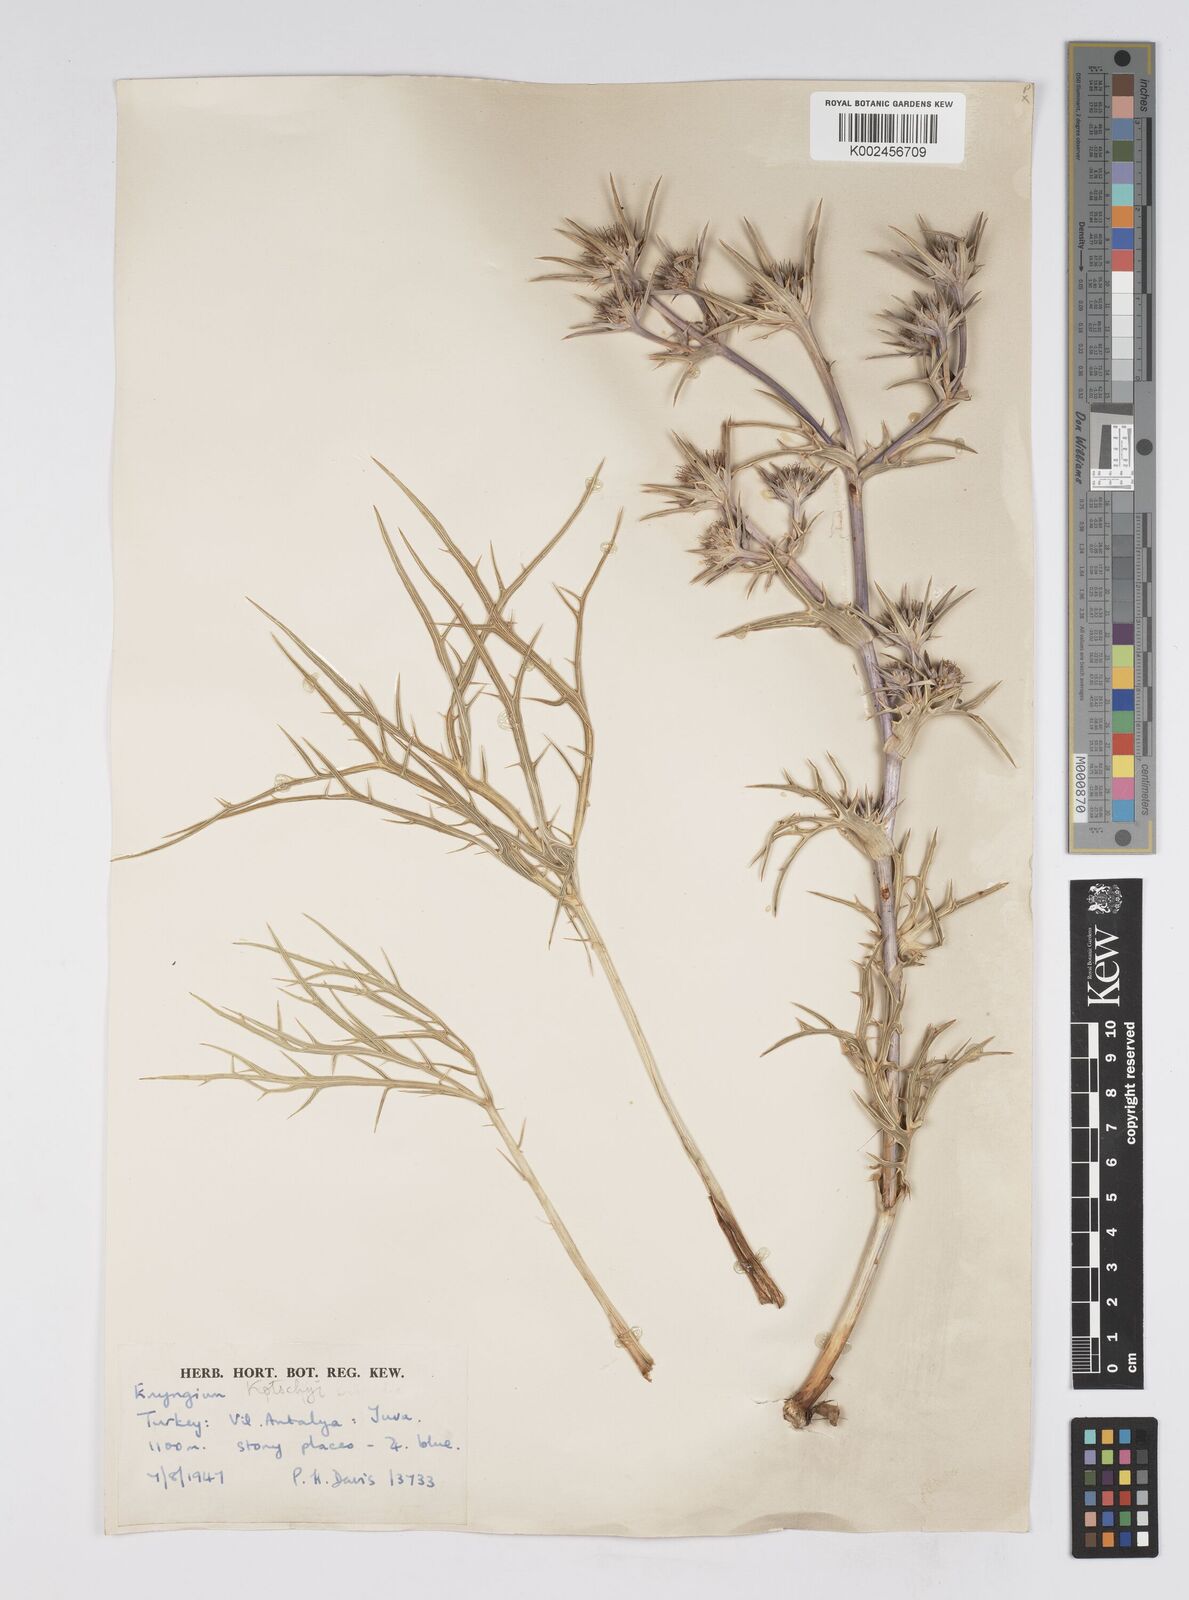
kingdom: Plantae
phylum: Tracheophyta
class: Magnoliopsida
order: Apiales
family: Apiaceae
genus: Eryngium
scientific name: Eryngium
